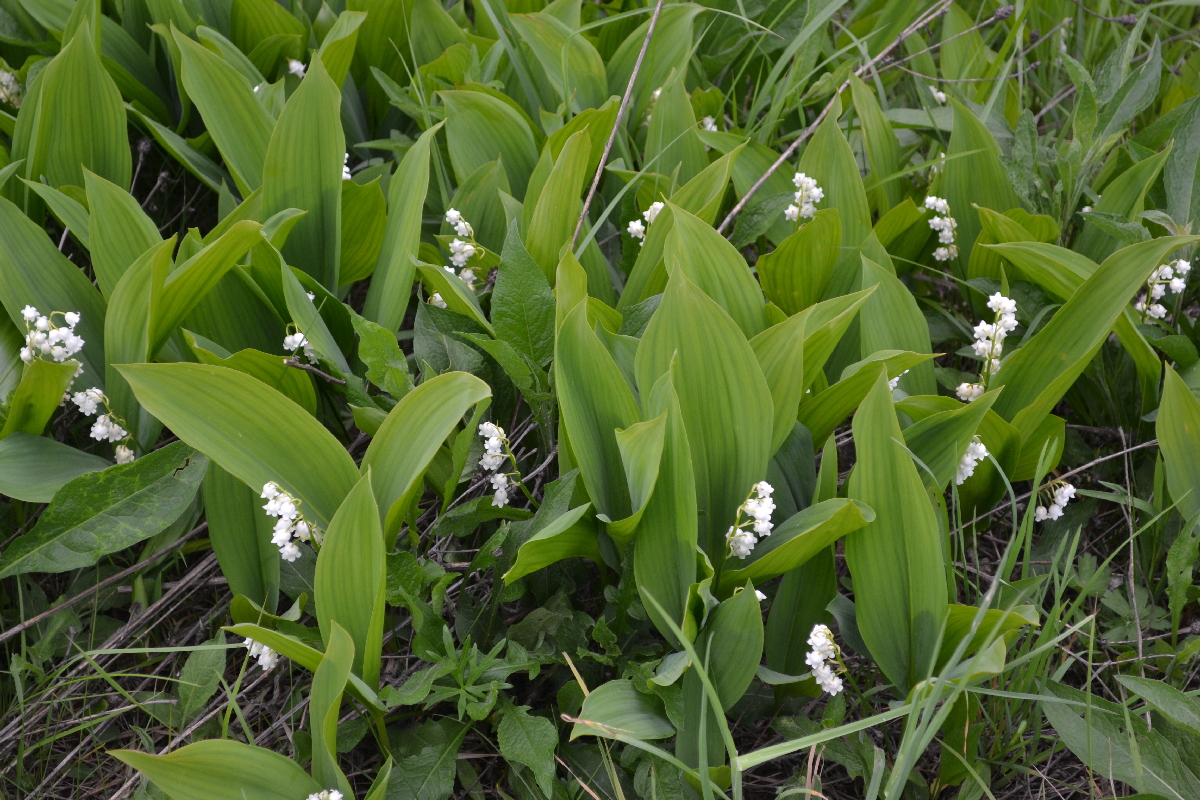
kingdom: Plantae
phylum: Tracheophyta
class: Liliopsida
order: Asparagales
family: Asparagaceae
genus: Convallaria
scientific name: Convallaria majalis
